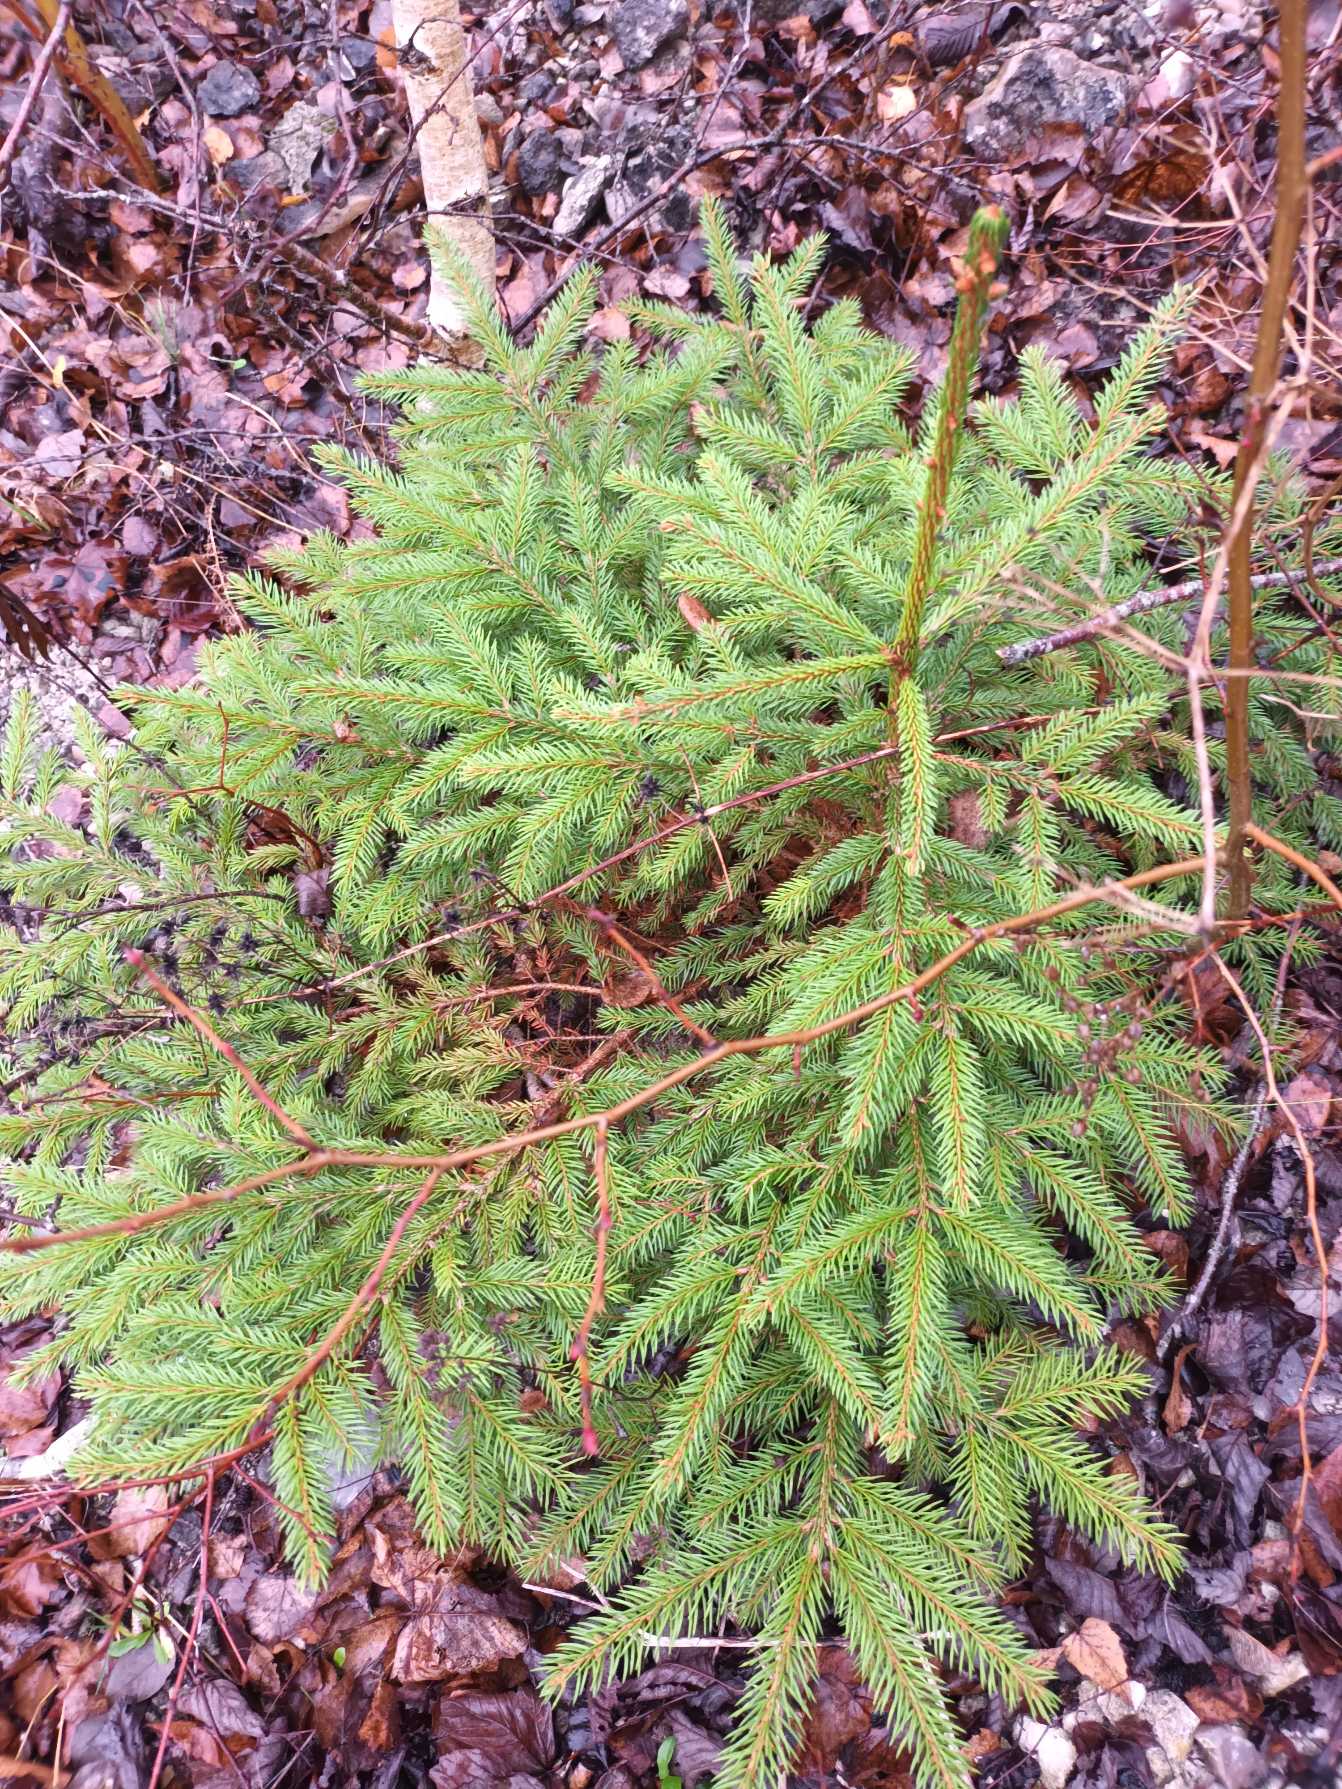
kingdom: Plantae
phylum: Tracheophyta
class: Pinopsida
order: Pinales
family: Pinaceae
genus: Picea
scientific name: Picea abies
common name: Rød-gran
